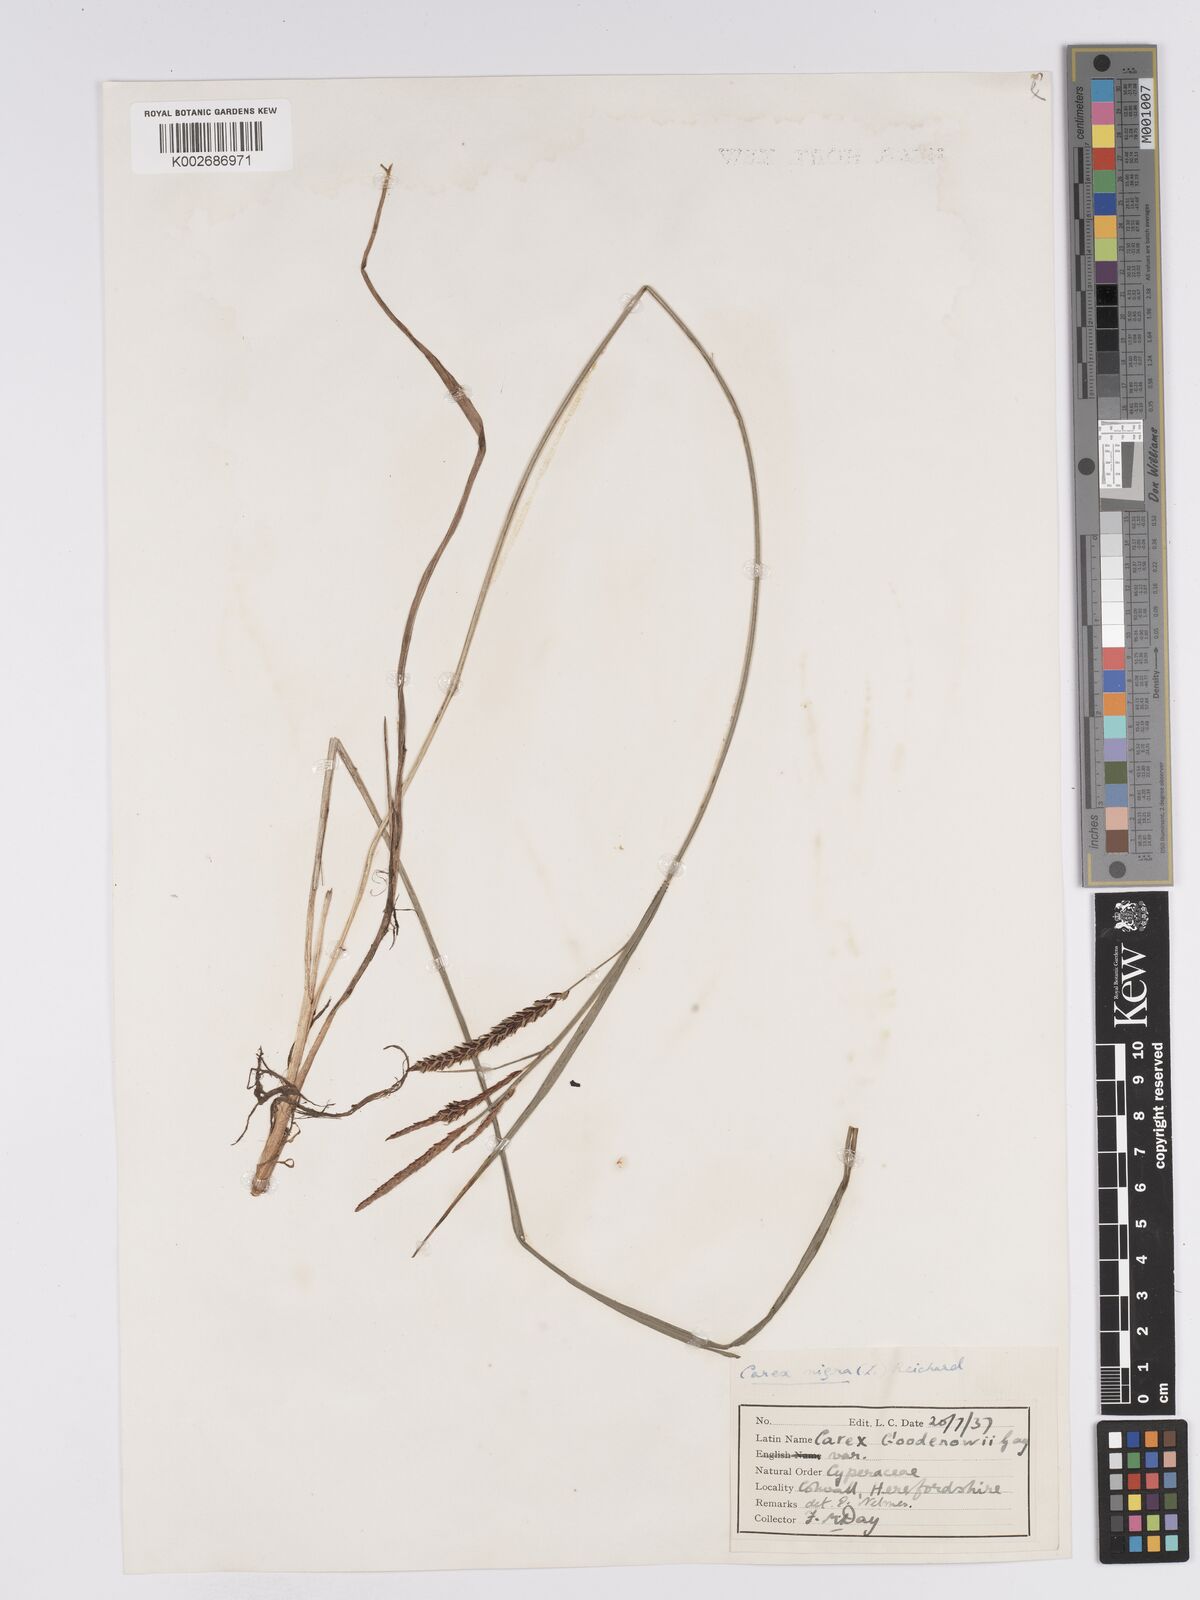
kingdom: Plantae
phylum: Tracheophyta
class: Liliopsida
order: Poales
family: Cyperaceae
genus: Carex
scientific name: Carex nigra
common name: Common sedge
